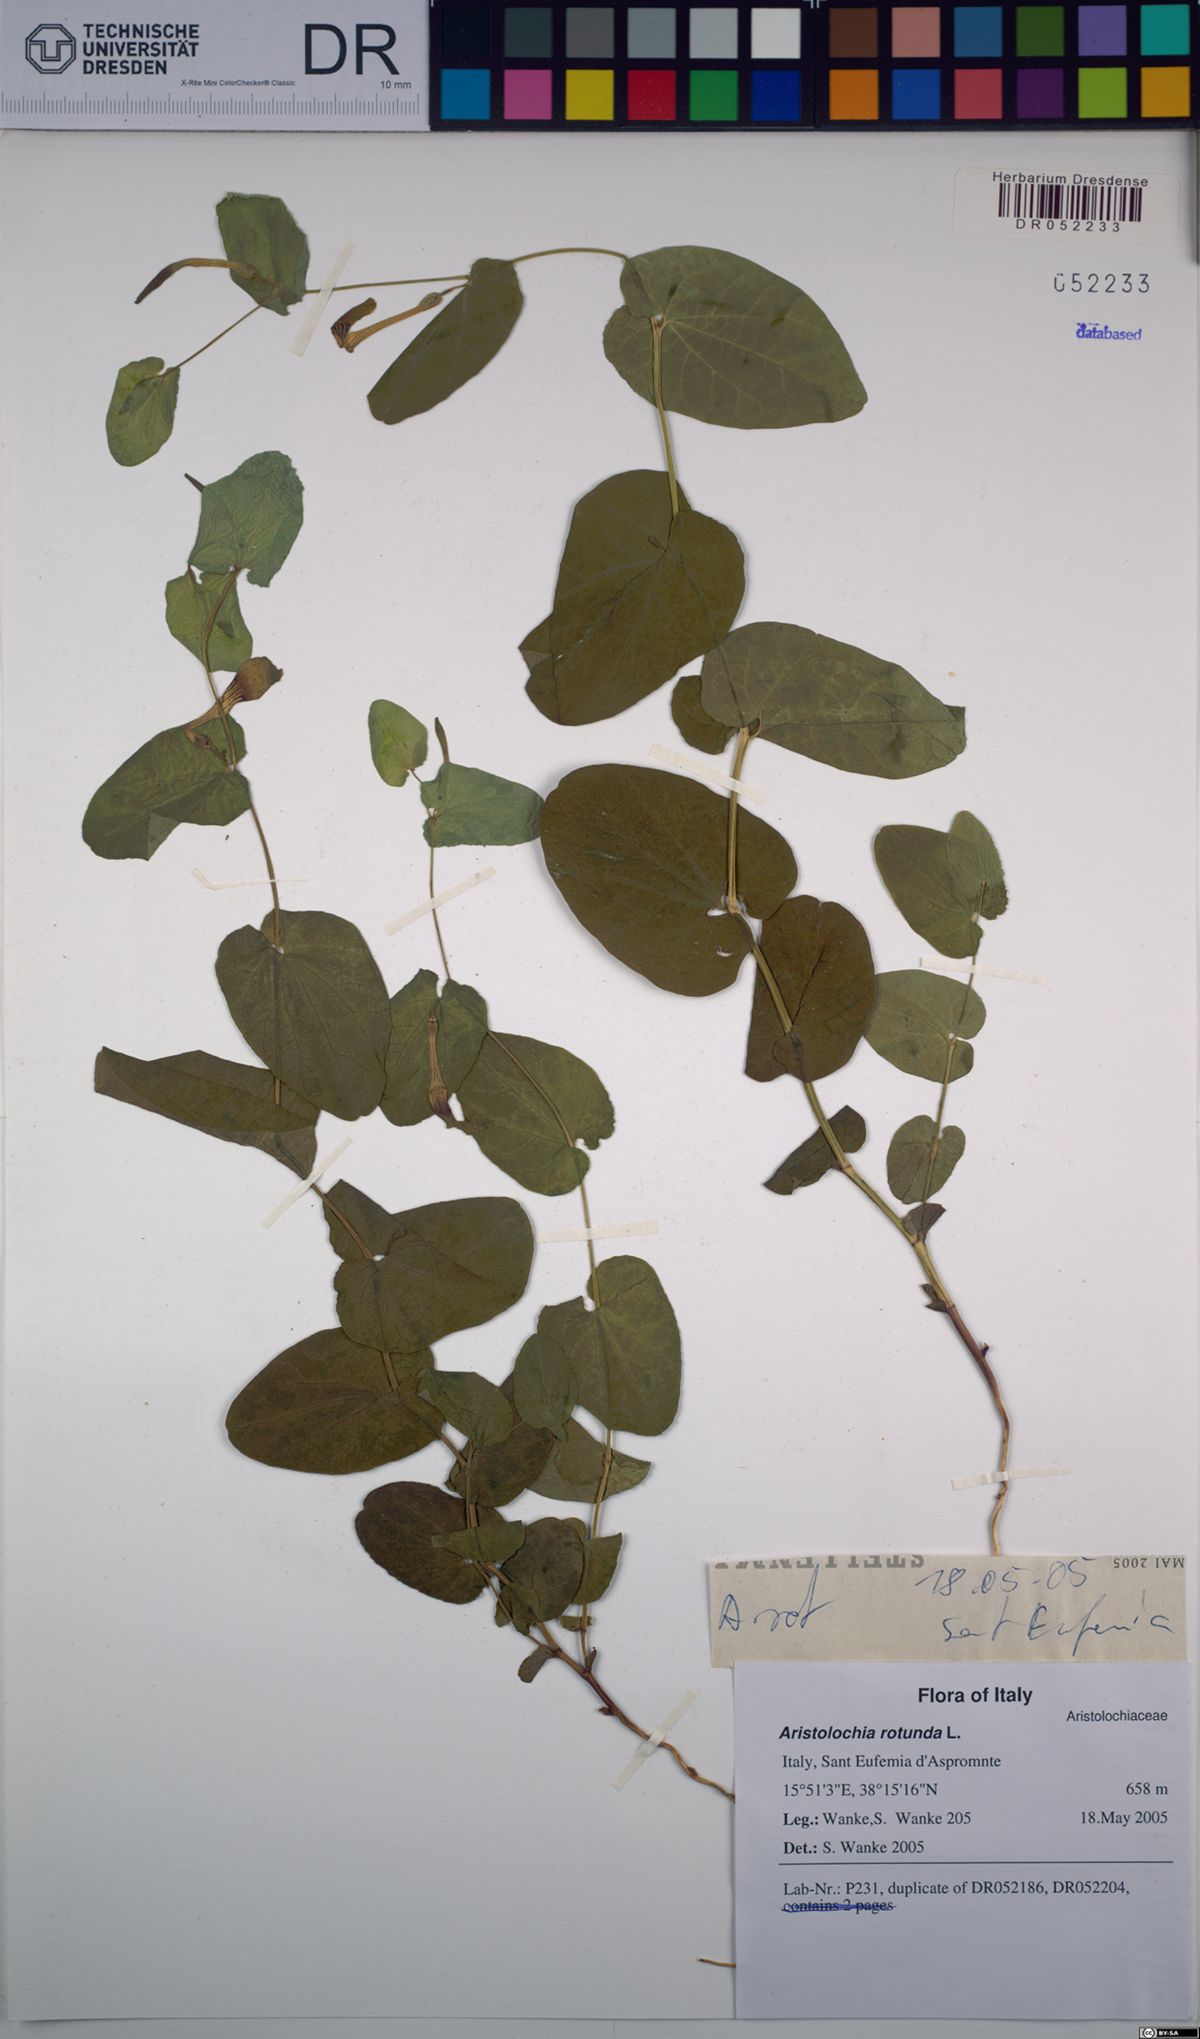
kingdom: Plantae
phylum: Tracheophyta
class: Magnoliopsida
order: Piperales
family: Aristolochiaceae
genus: Aristolochia
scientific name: Aristolochia rotunda
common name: Smearwort
